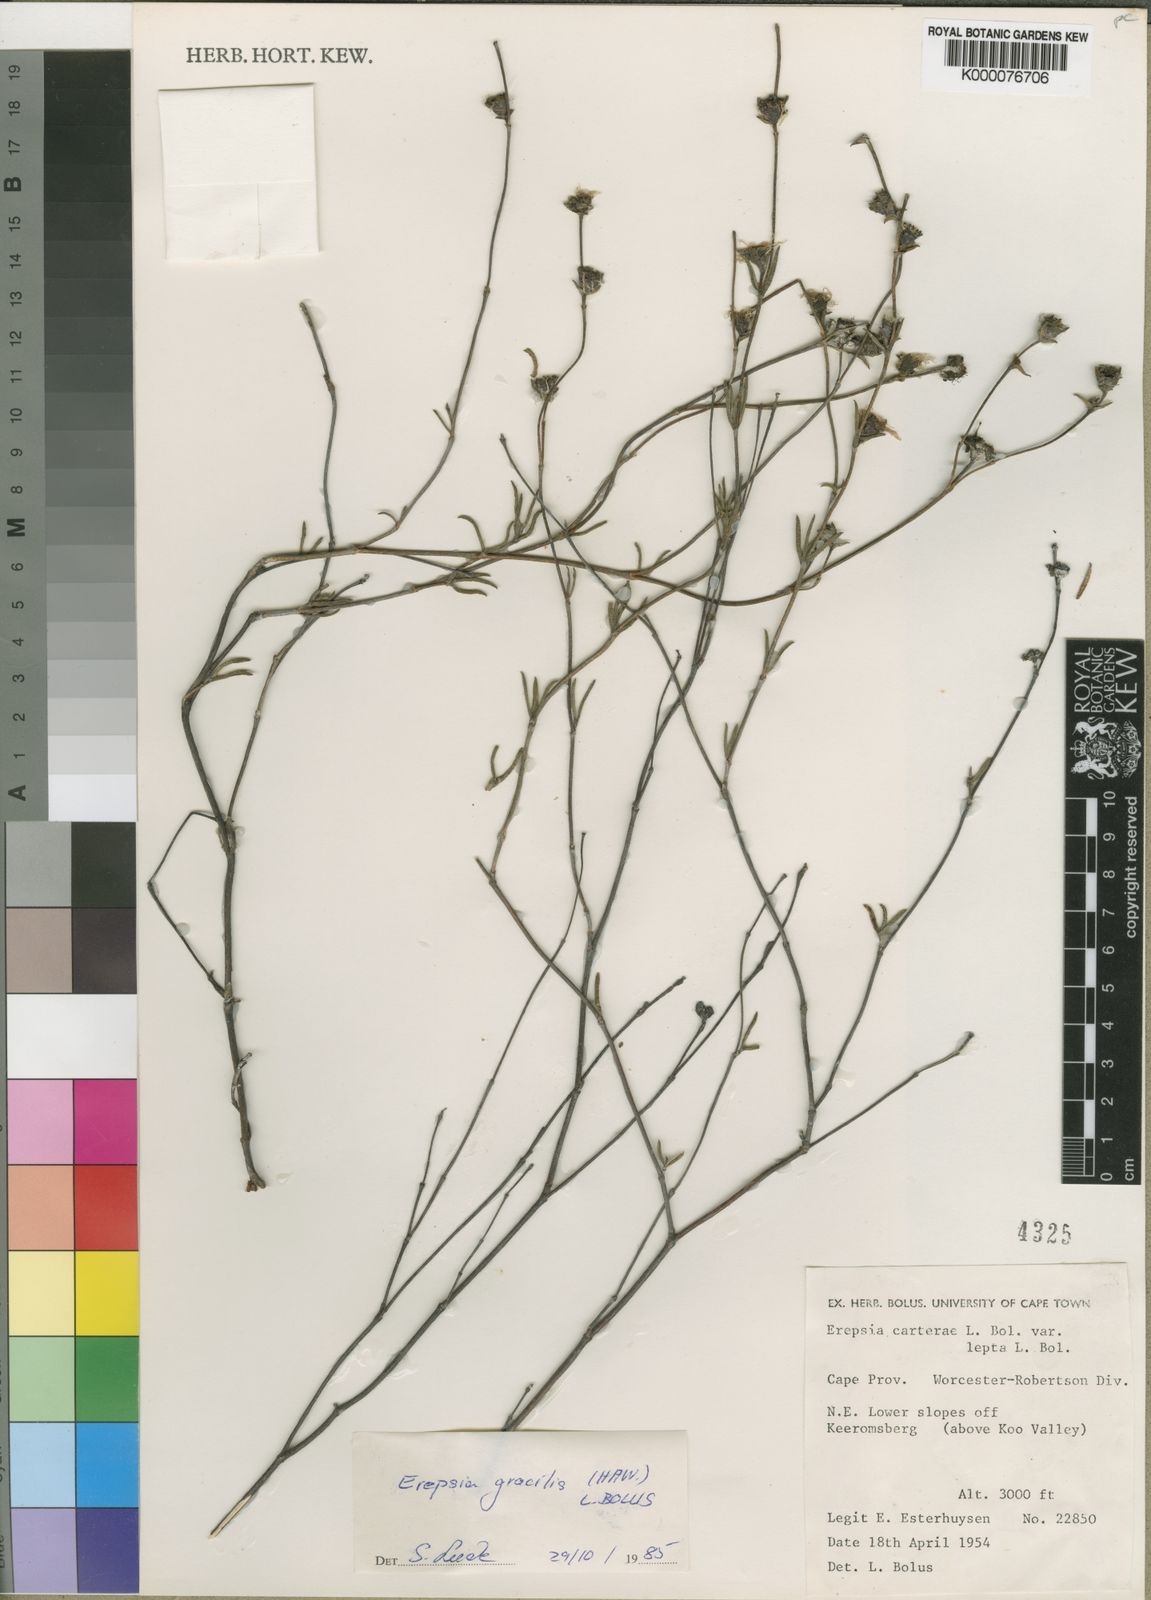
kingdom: Plantae
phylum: Tracheophyta
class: Magnoliopsida
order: Caryophyllales
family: Aizoaceae
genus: Erepsia
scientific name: Erepsia gracilis
